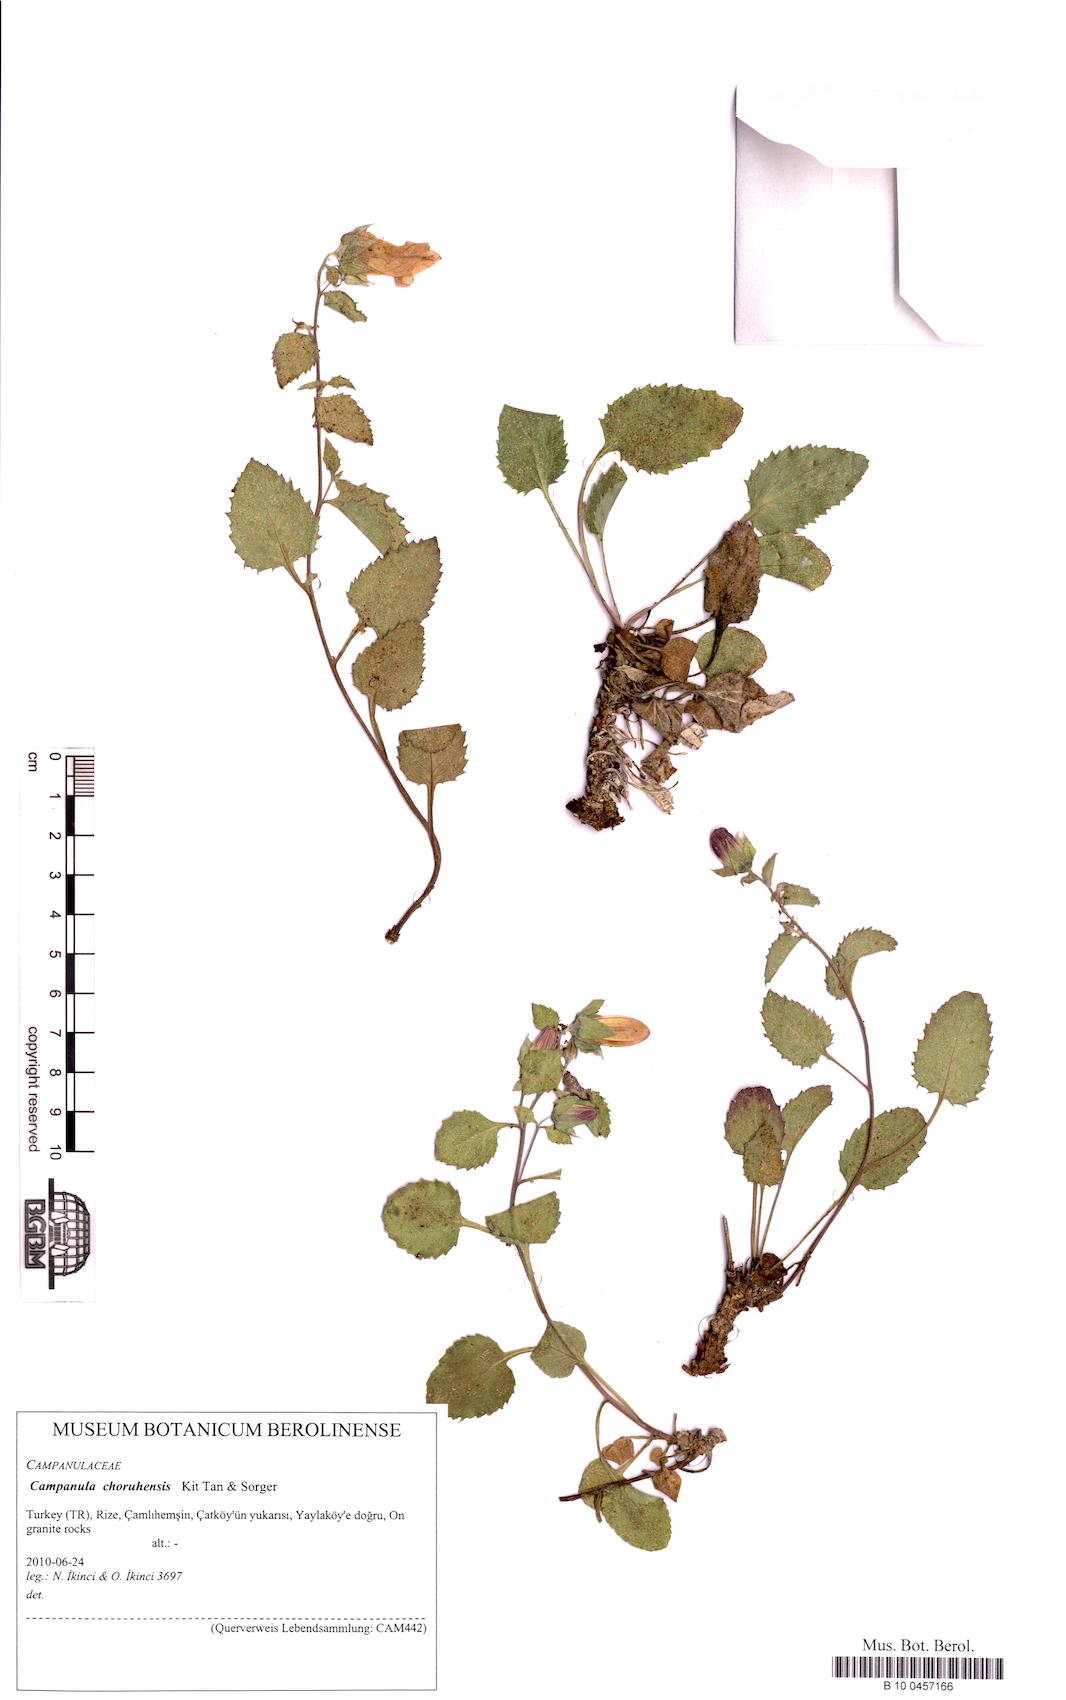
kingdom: Plantae
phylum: Tracheophyta
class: Magnoliopsida
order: Asterales
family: Campanulaceae
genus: Campanula
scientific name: Campanula choruhensis
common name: Choruhian bellflower
